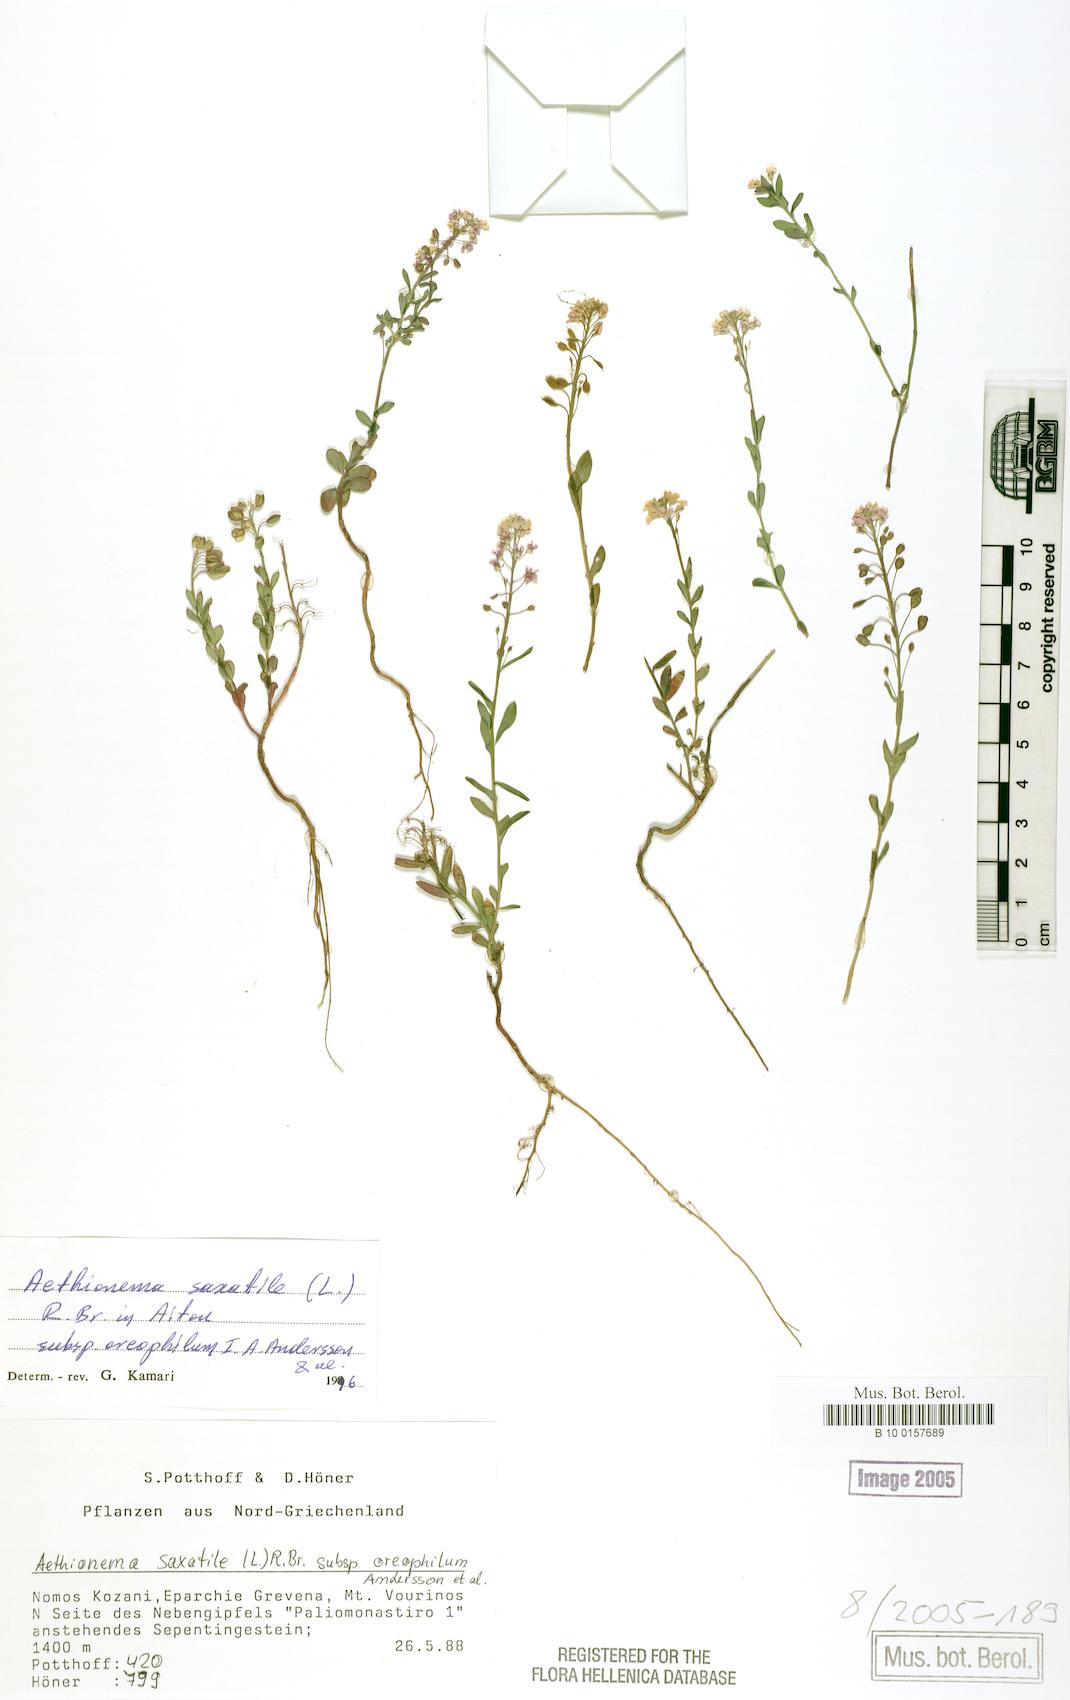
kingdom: Plantae
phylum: Tracheophyta
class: Magnoliopsida
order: Brassicales
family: Brassicaceae
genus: Aethionema
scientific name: Aethionema saxatile
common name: Burnt candytuft
